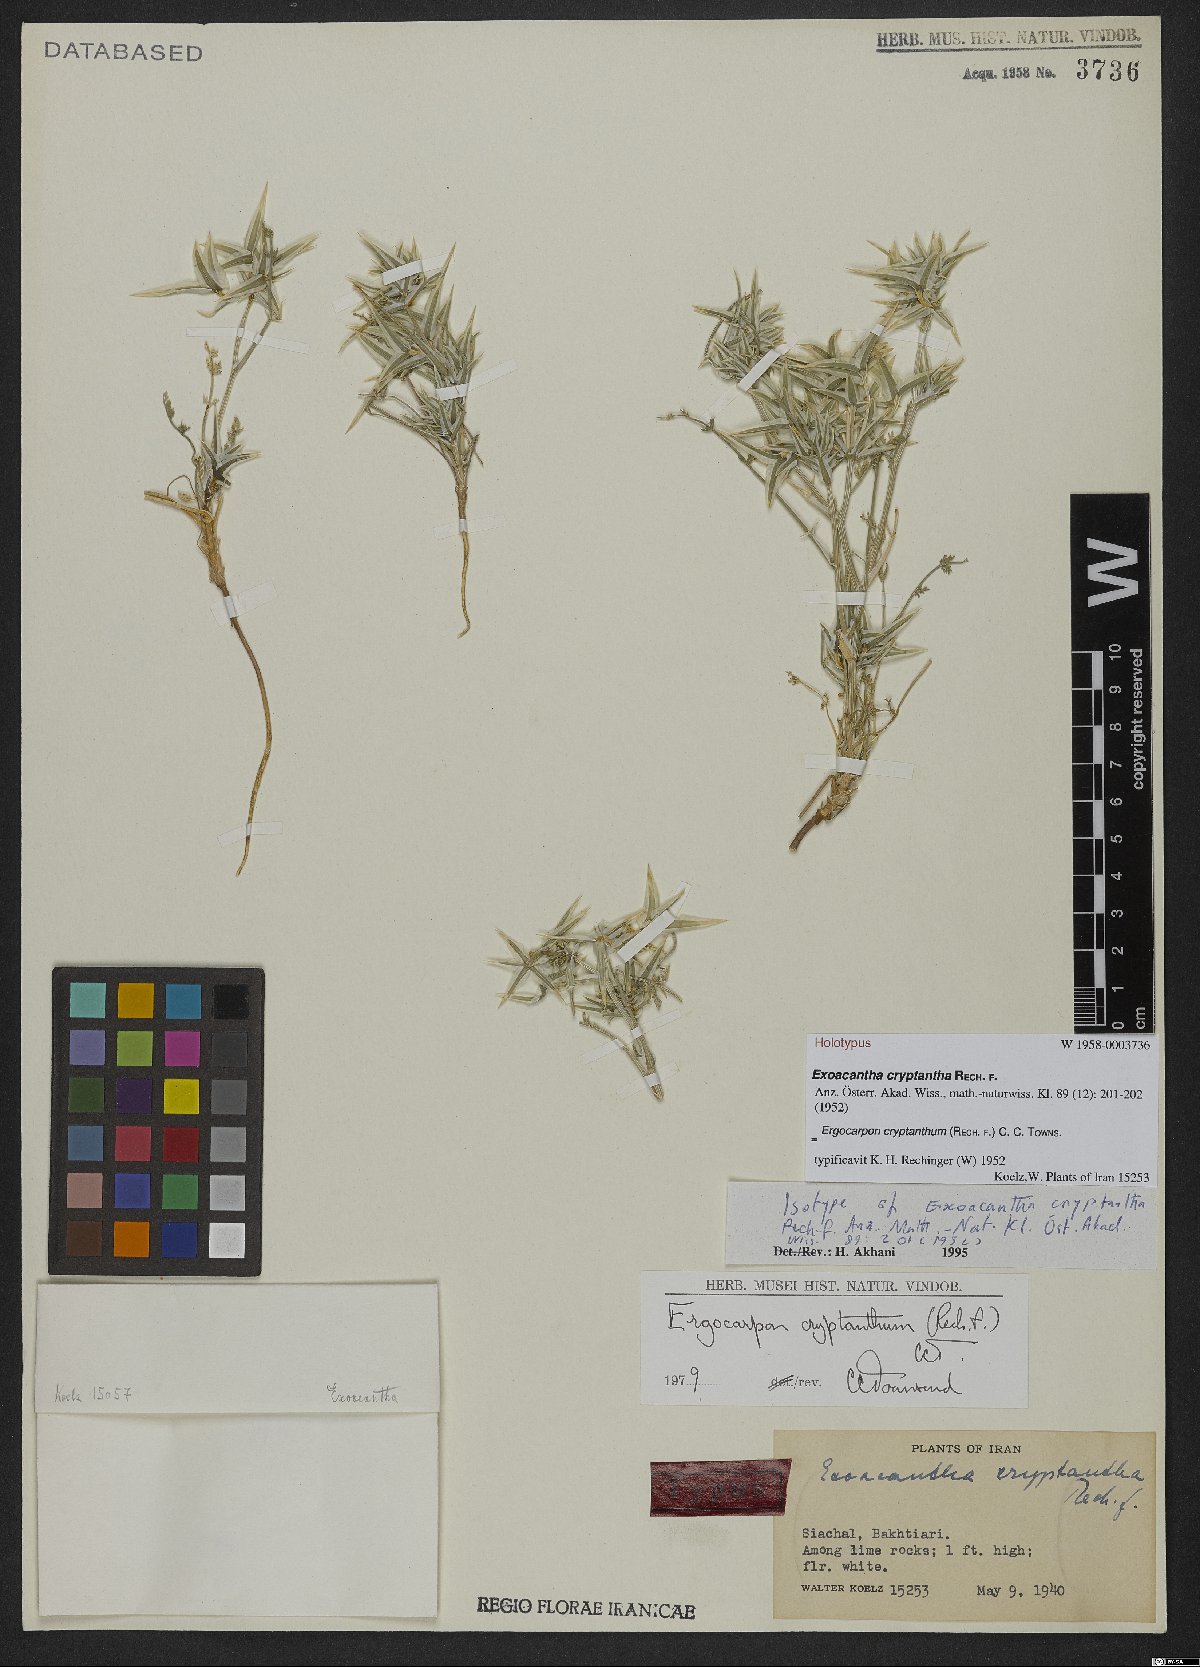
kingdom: Plantae
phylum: Tracheophyta
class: Magnoliopsida
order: Apiales
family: Apiaceae
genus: Ergocarpon
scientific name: Ergocarpon cryptanthum
